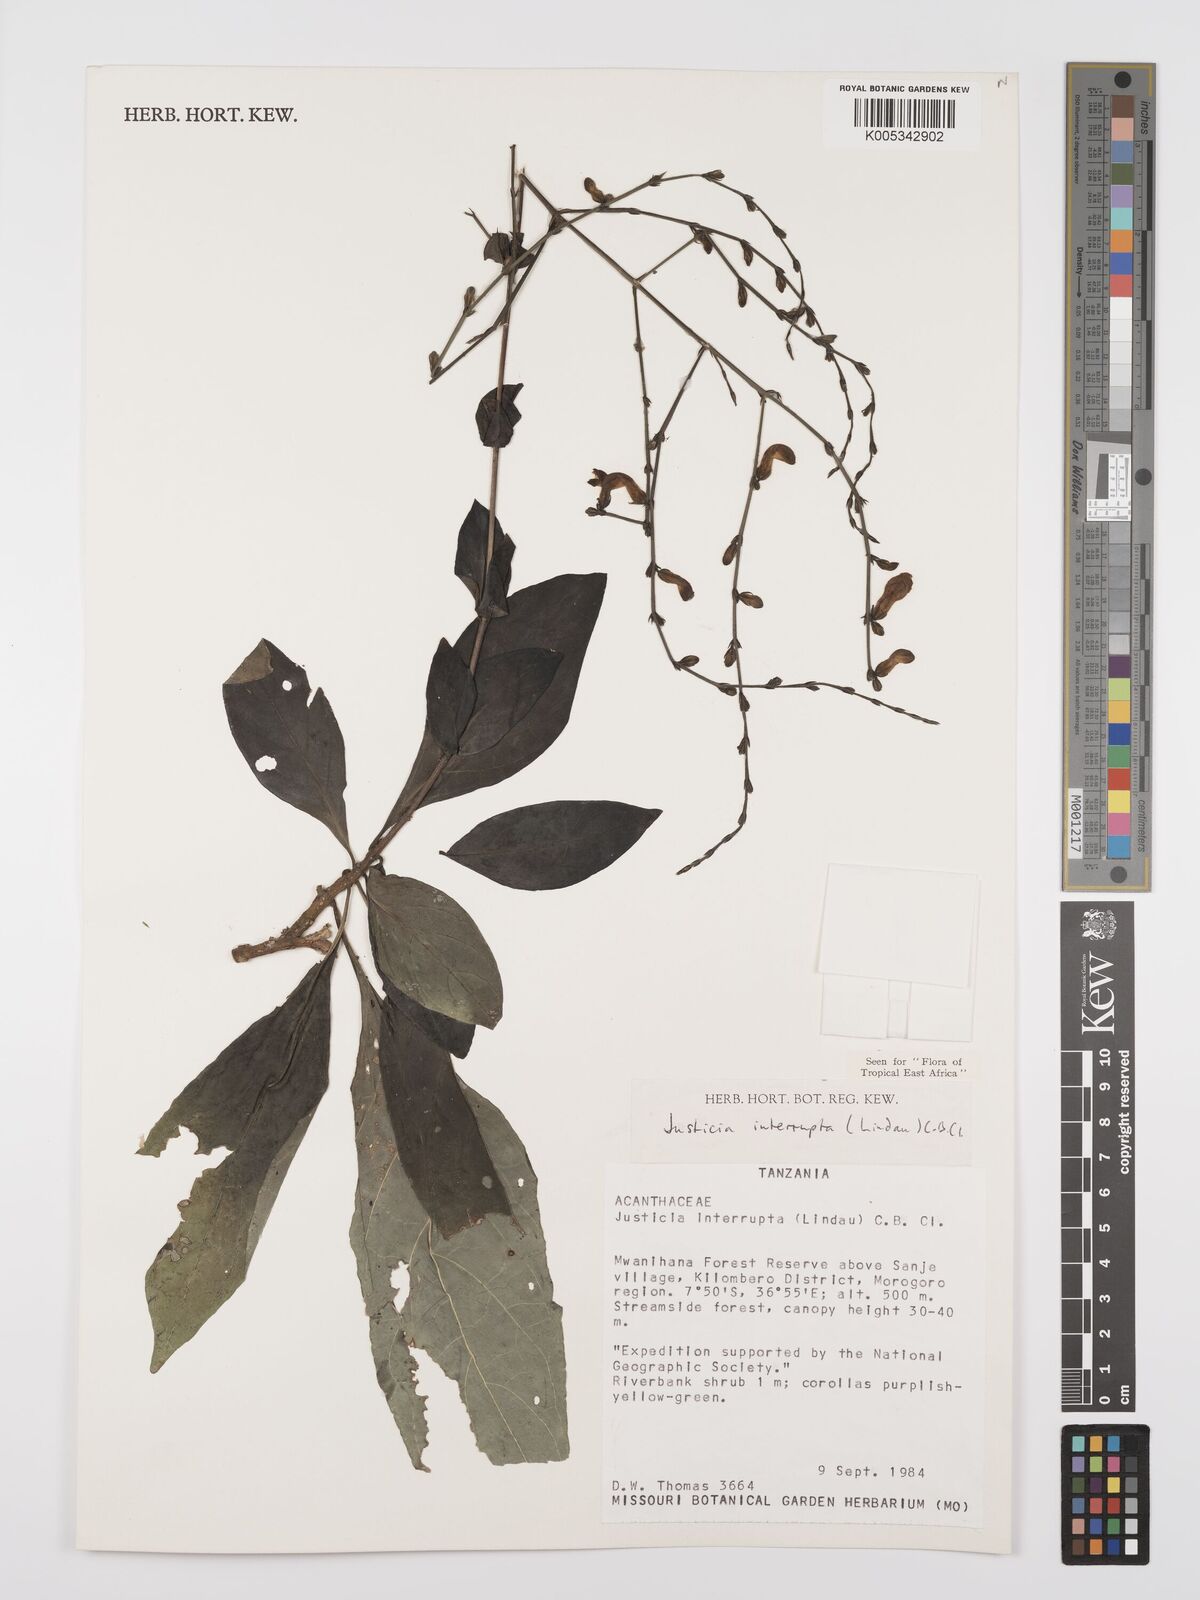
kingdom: Plantae
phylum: Tracheophyta
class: Magnoliopsida
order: Lamiales
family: Acanthaceae
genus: Justicia
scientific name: Justicia plectranthoides
